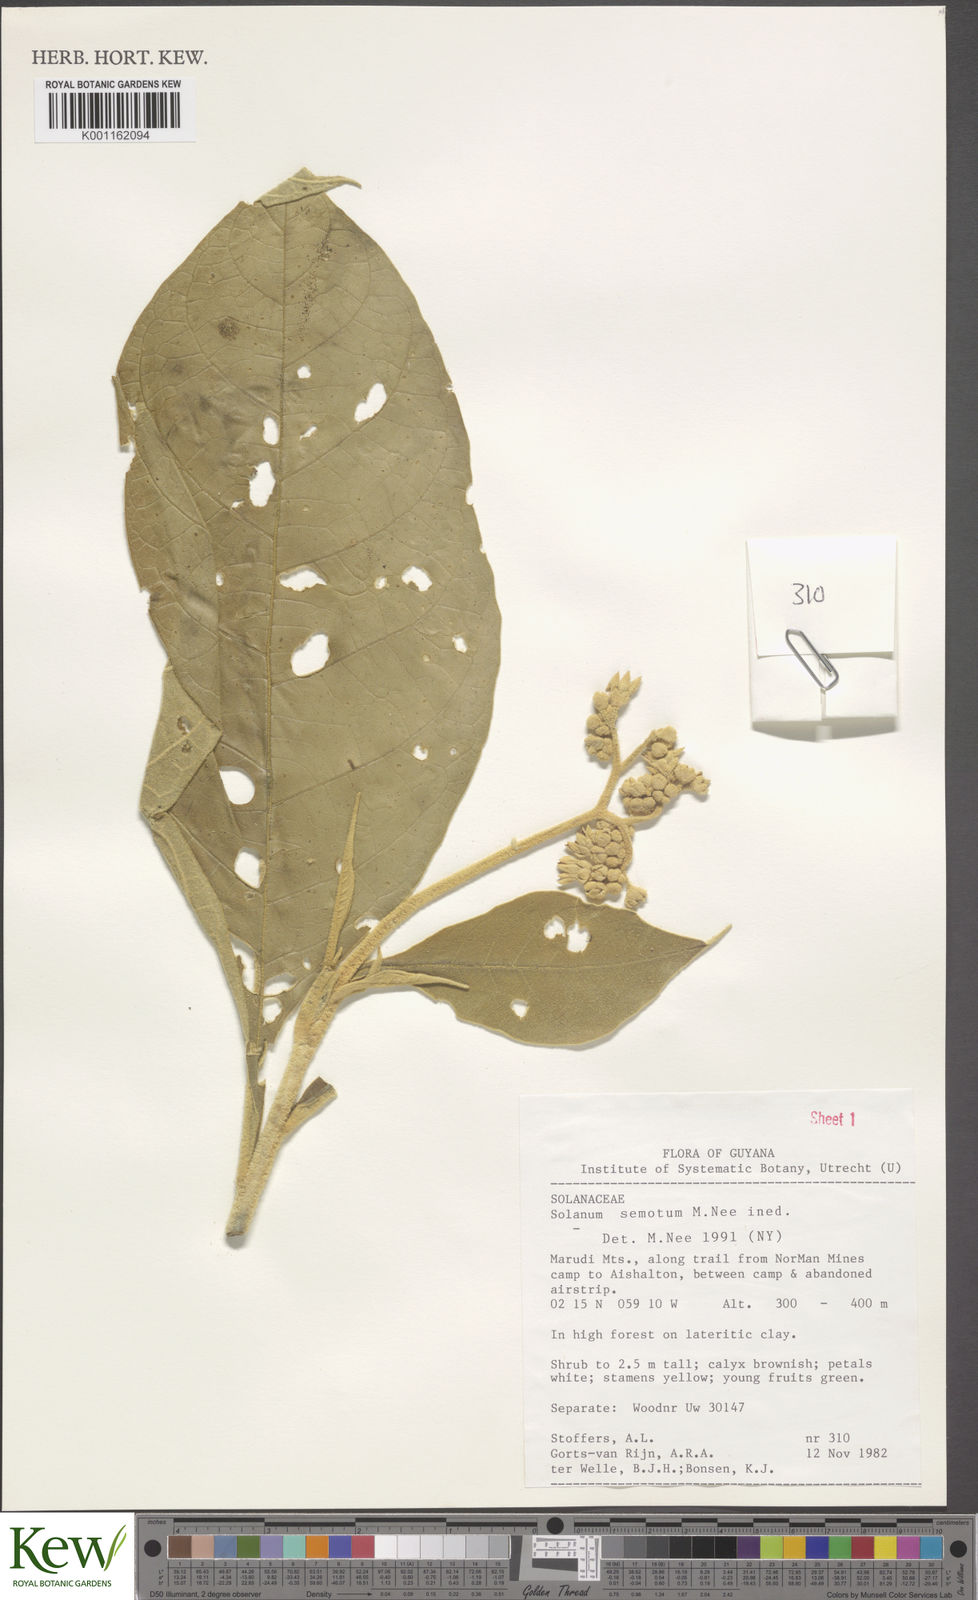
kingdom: Plantae
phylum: Tracheophyta
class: Magnoliopsida
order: Solanales
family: Solanaceae
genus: Solanum
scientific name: Solanum semotum
